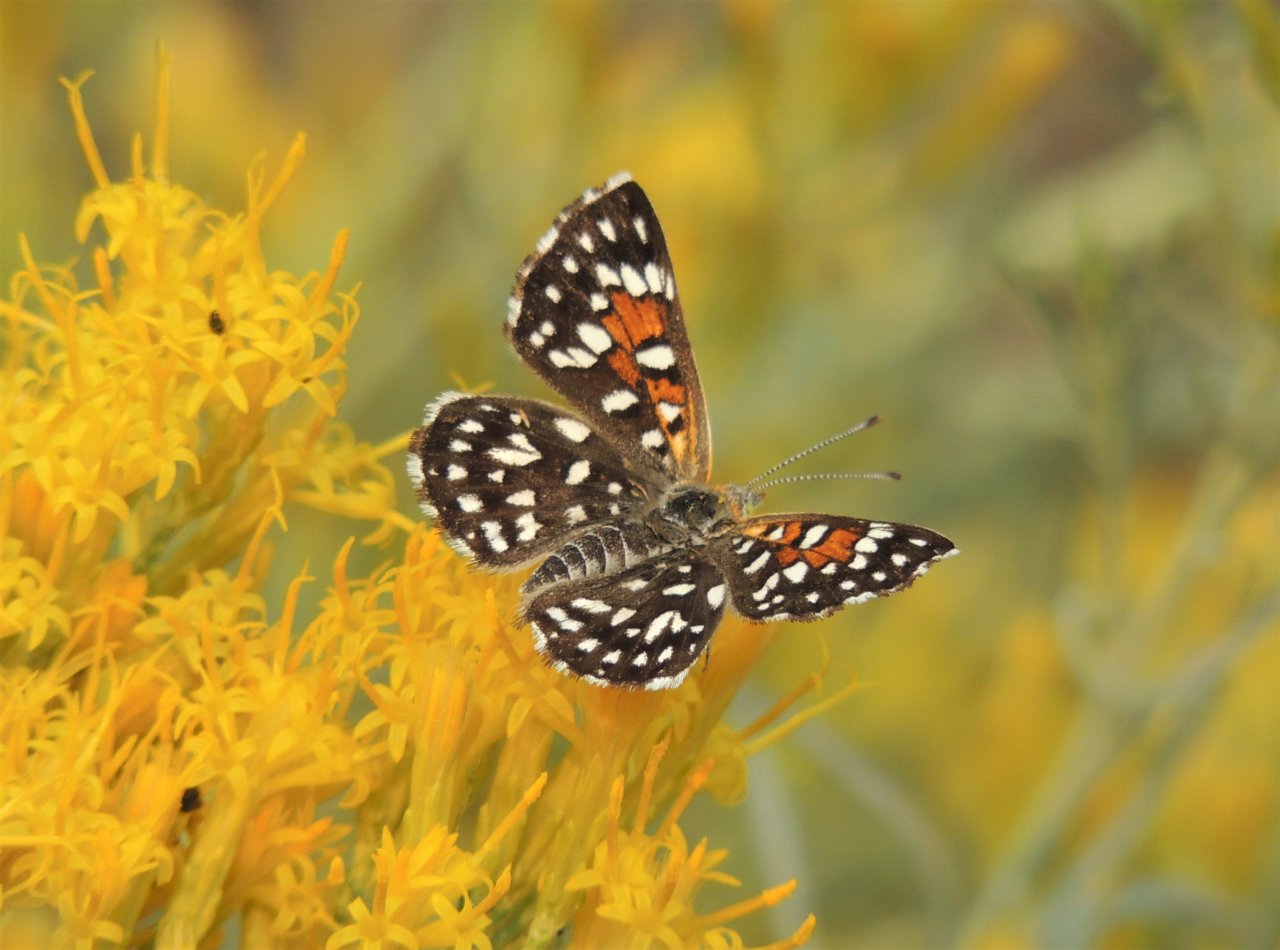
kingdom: Animalia
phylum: Arthropoda
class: Insecta
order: Lepidoptera
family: Riodinidae
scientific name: Riodinidae
